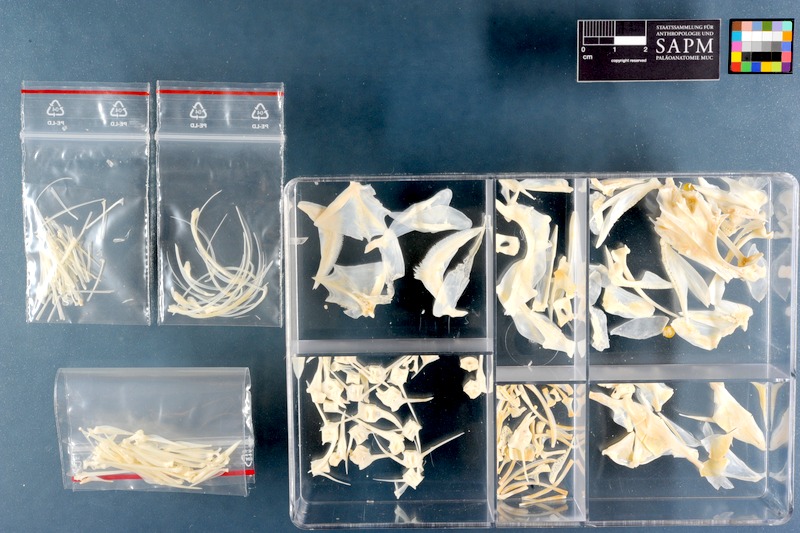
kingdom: Animalia
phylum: Chordata
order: Perciformes
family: Serranidae
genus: Epinephelus
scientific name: Epinephelus rivulatus
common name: Halfmoon grouper
